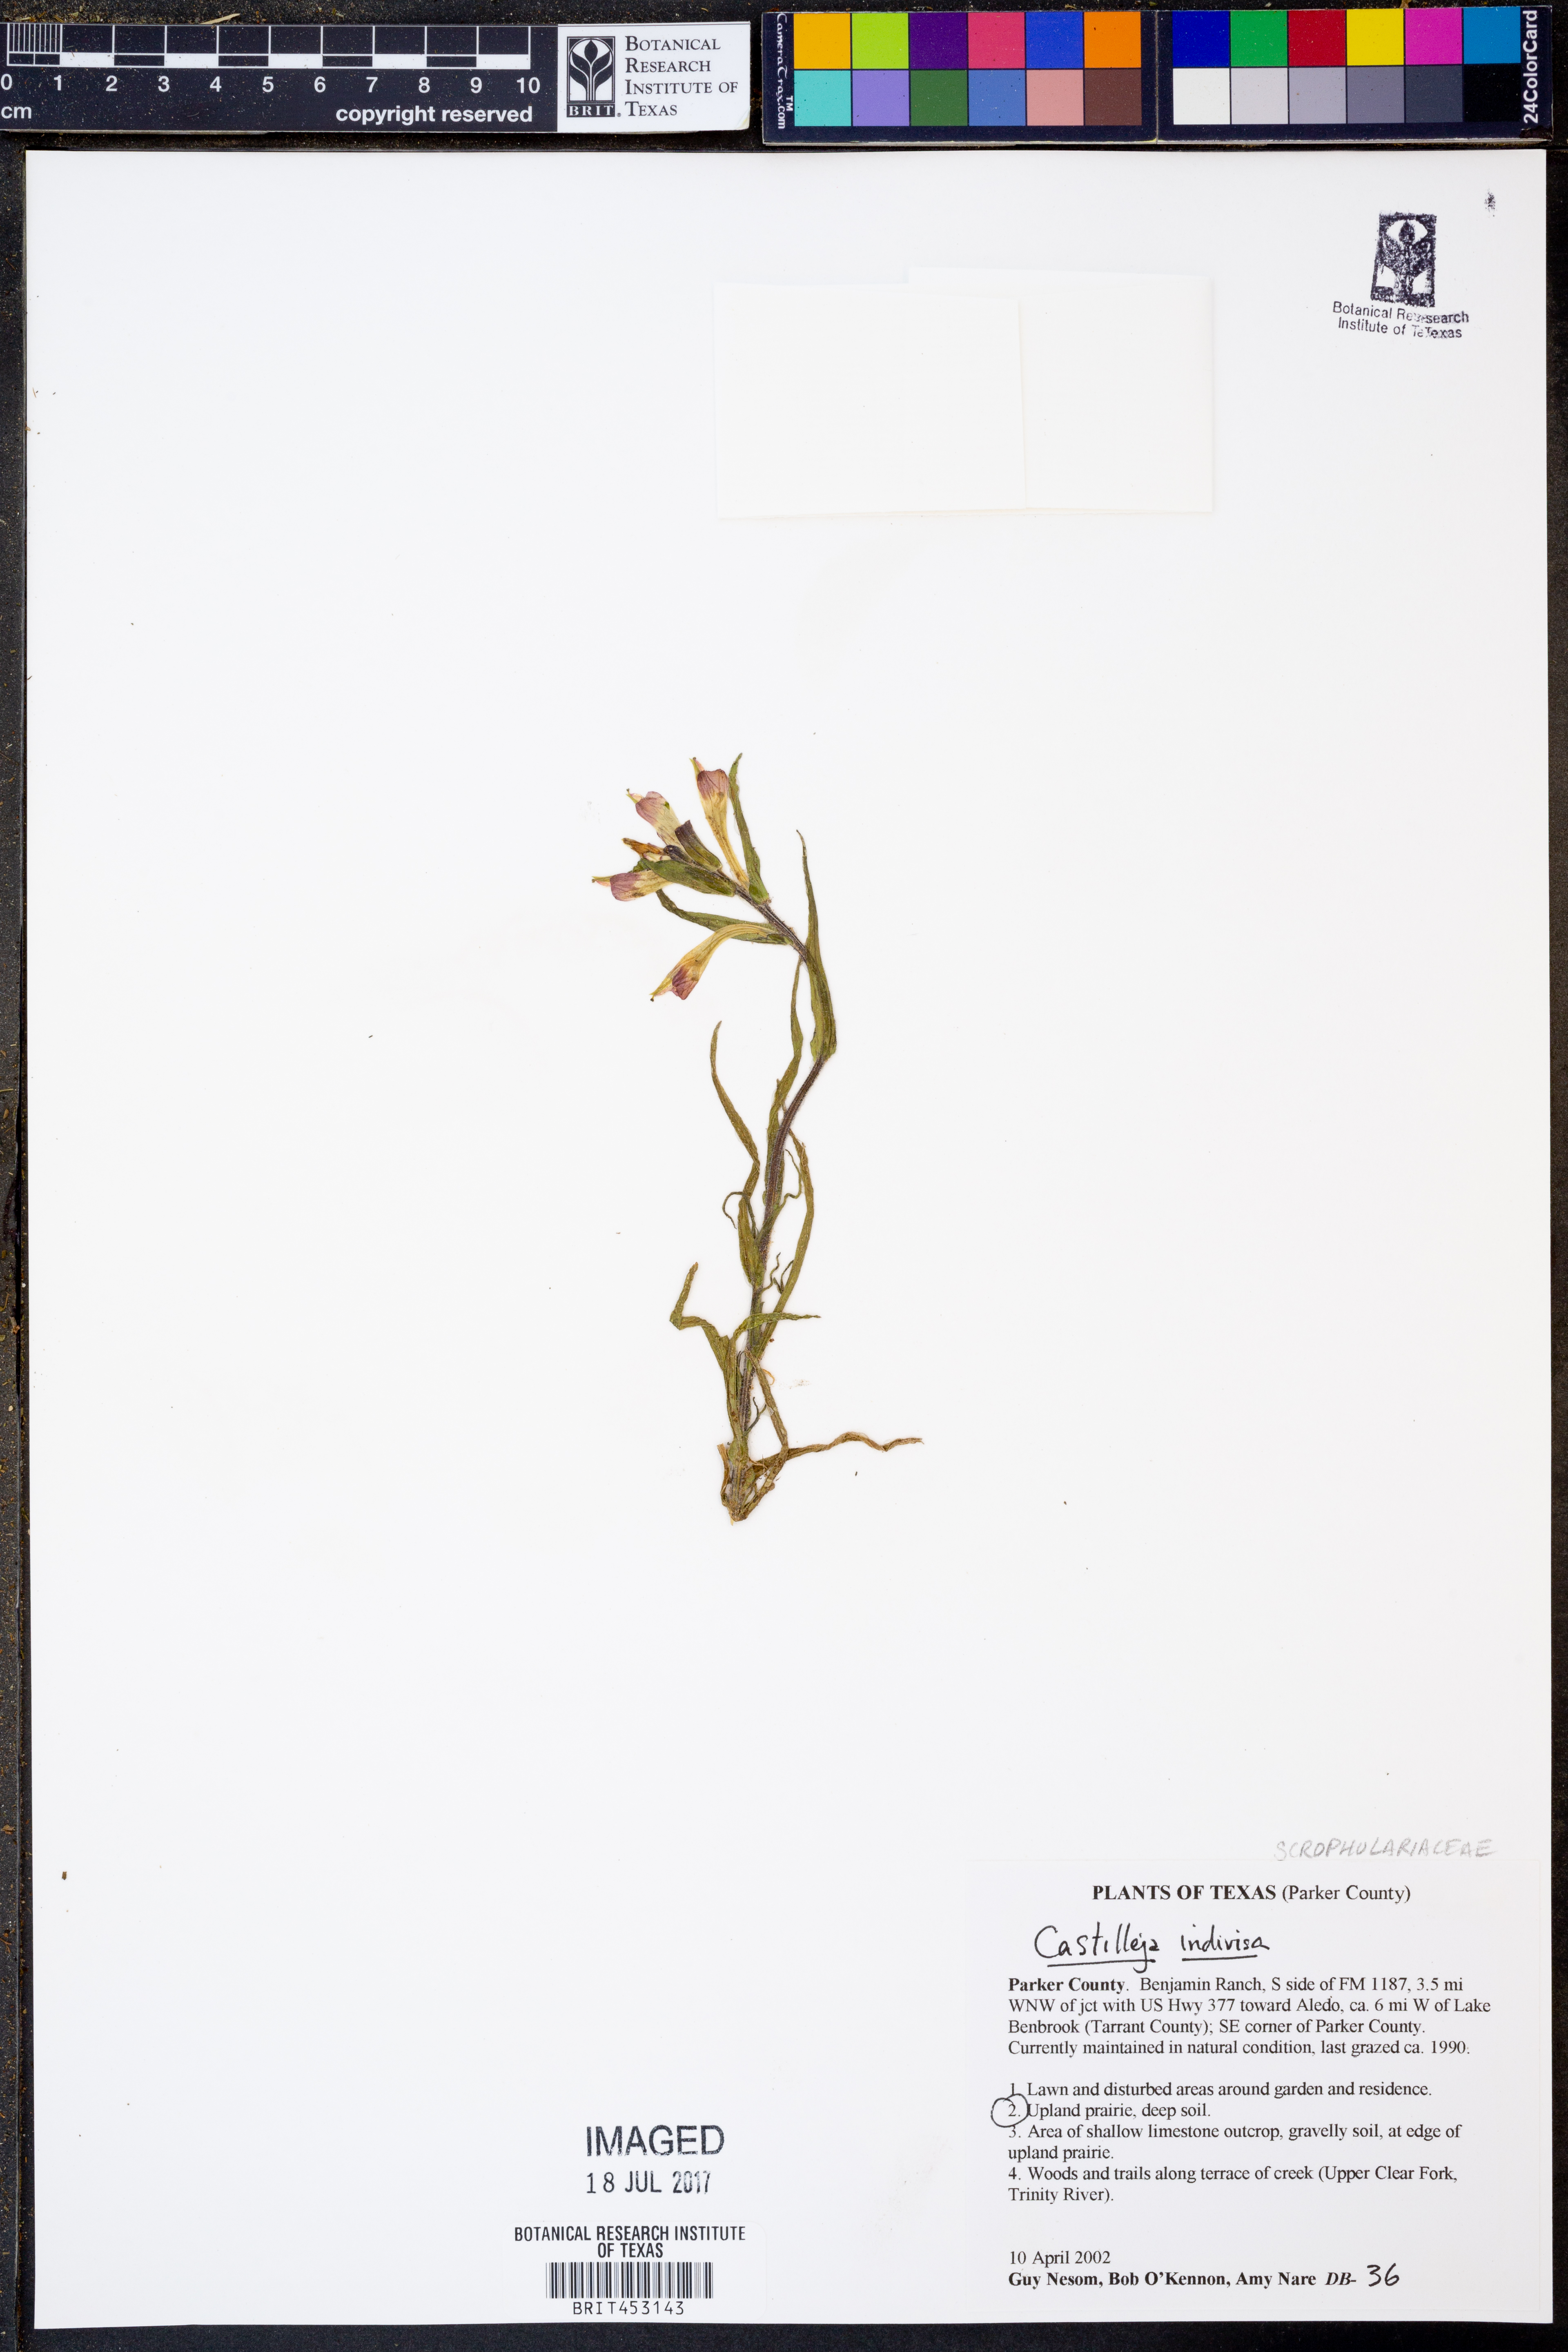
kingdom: Plantae
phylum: Tracheophyta
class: Magnoliopsida
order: Lamiales
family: Orobanchaceae
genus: Castilleja
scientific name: Castilleja indivisa
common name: Texas paintbrush
